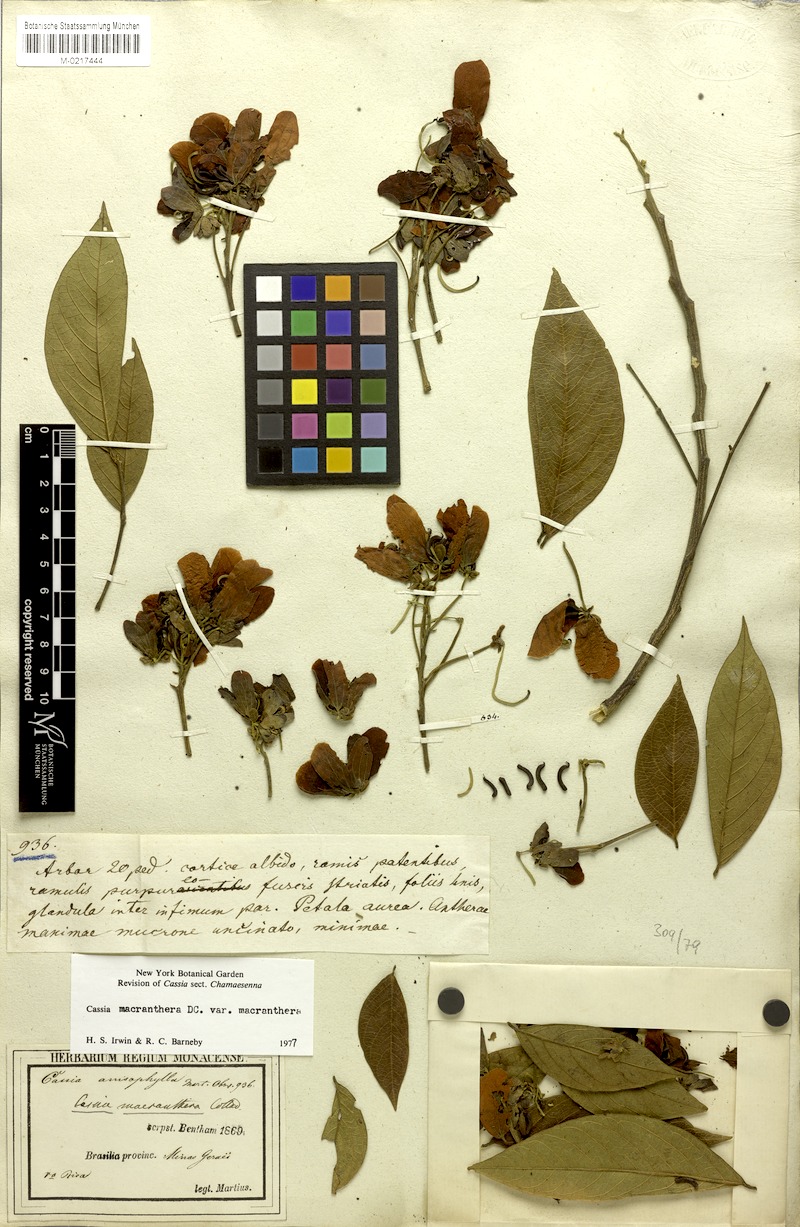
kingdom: Plantae
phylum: Tracheophyta
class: Magnoliopsida
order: Fabales
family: Fabaceae
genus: Cassia
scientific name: Cassia
